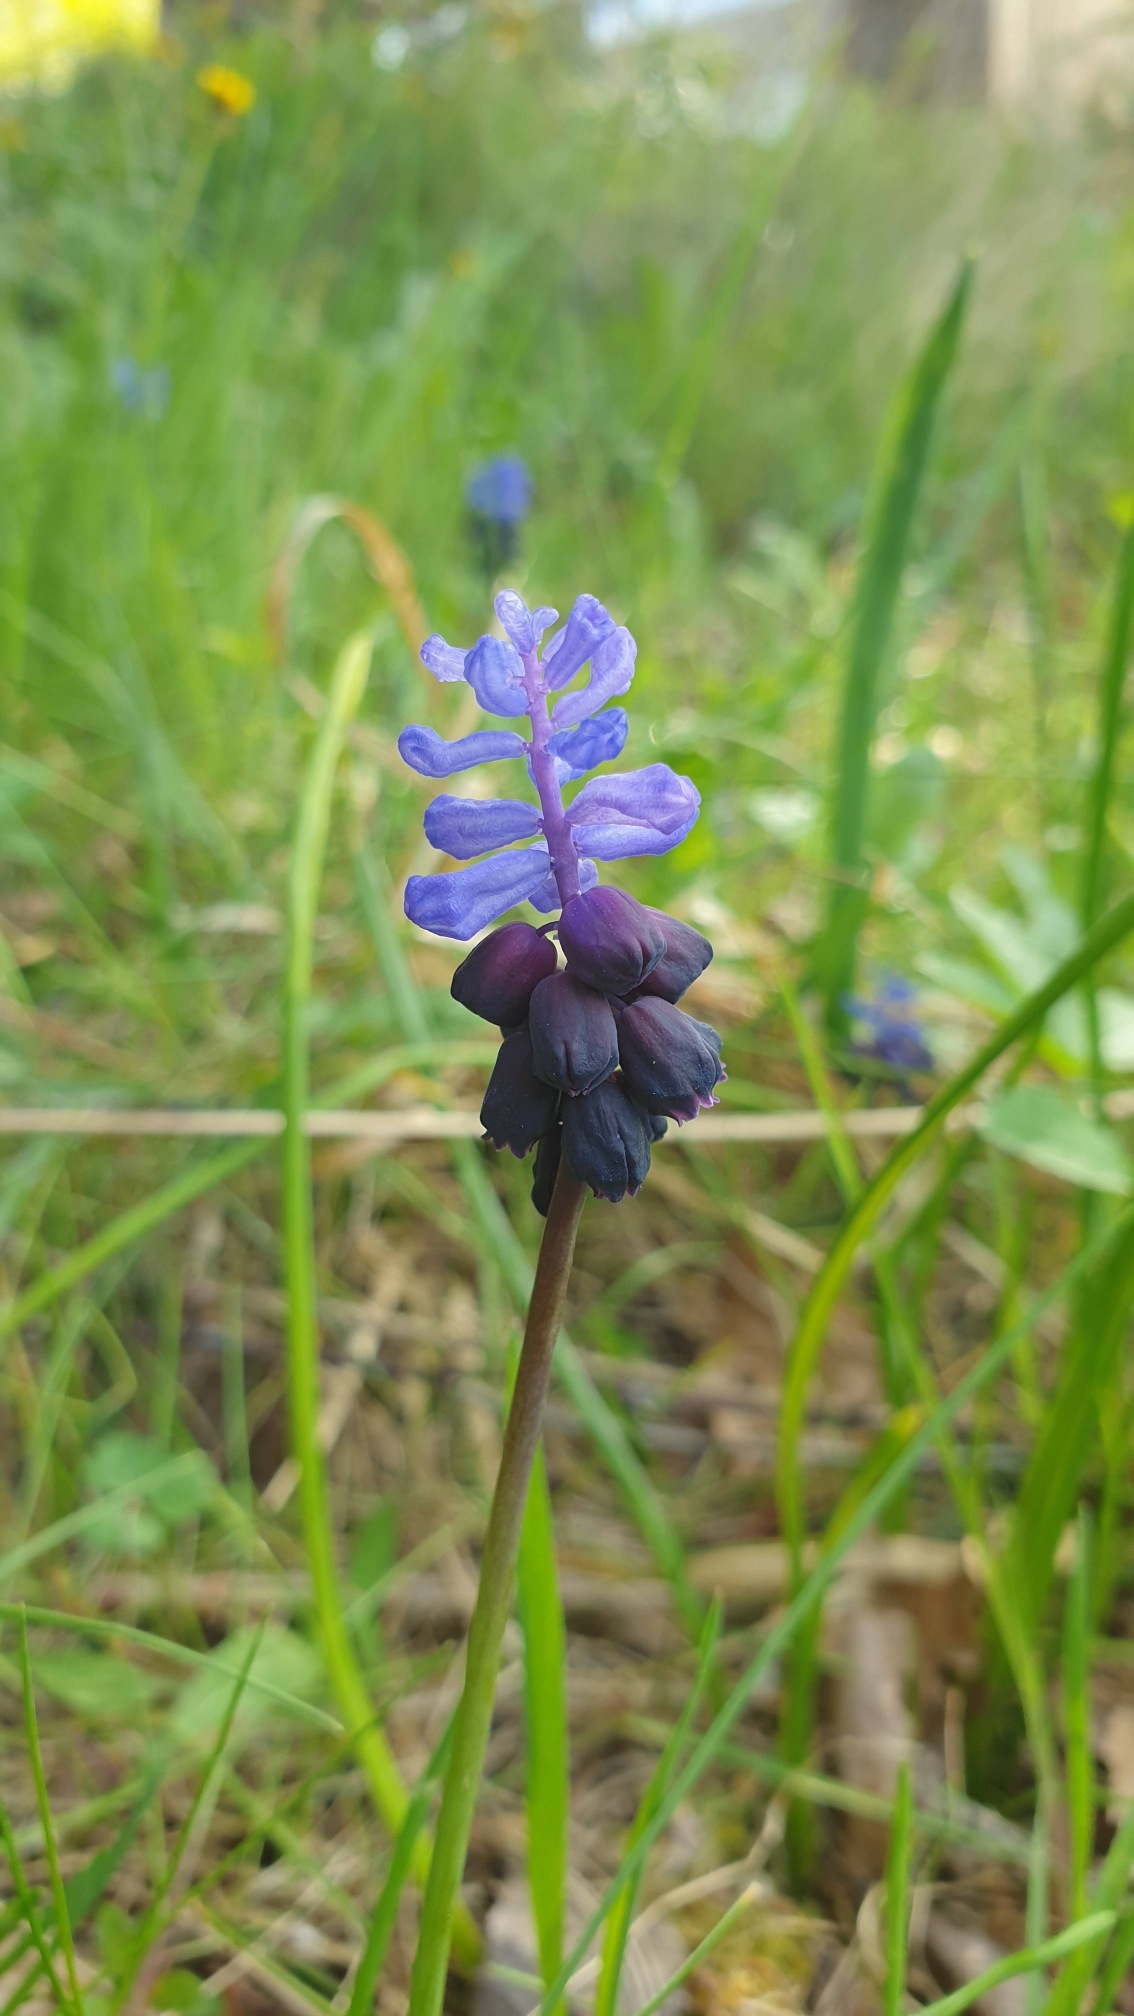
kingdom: Plantae
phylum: Tracheophyta
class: Liliopsida
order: Asparagales
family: Asparagaceae
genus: Muscari
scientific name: Muscari latifolium
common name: Bredbladet perlehyacint
